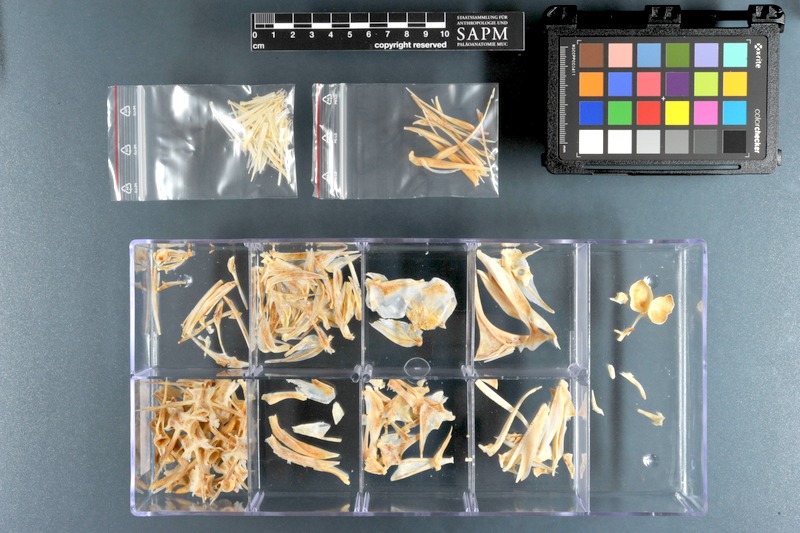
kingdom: Animalia
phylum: Chordata
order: Perciformes
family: Carangidae
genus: Scomberoides
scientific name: Scomberoides commersonnianus
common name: Talang queenfish
